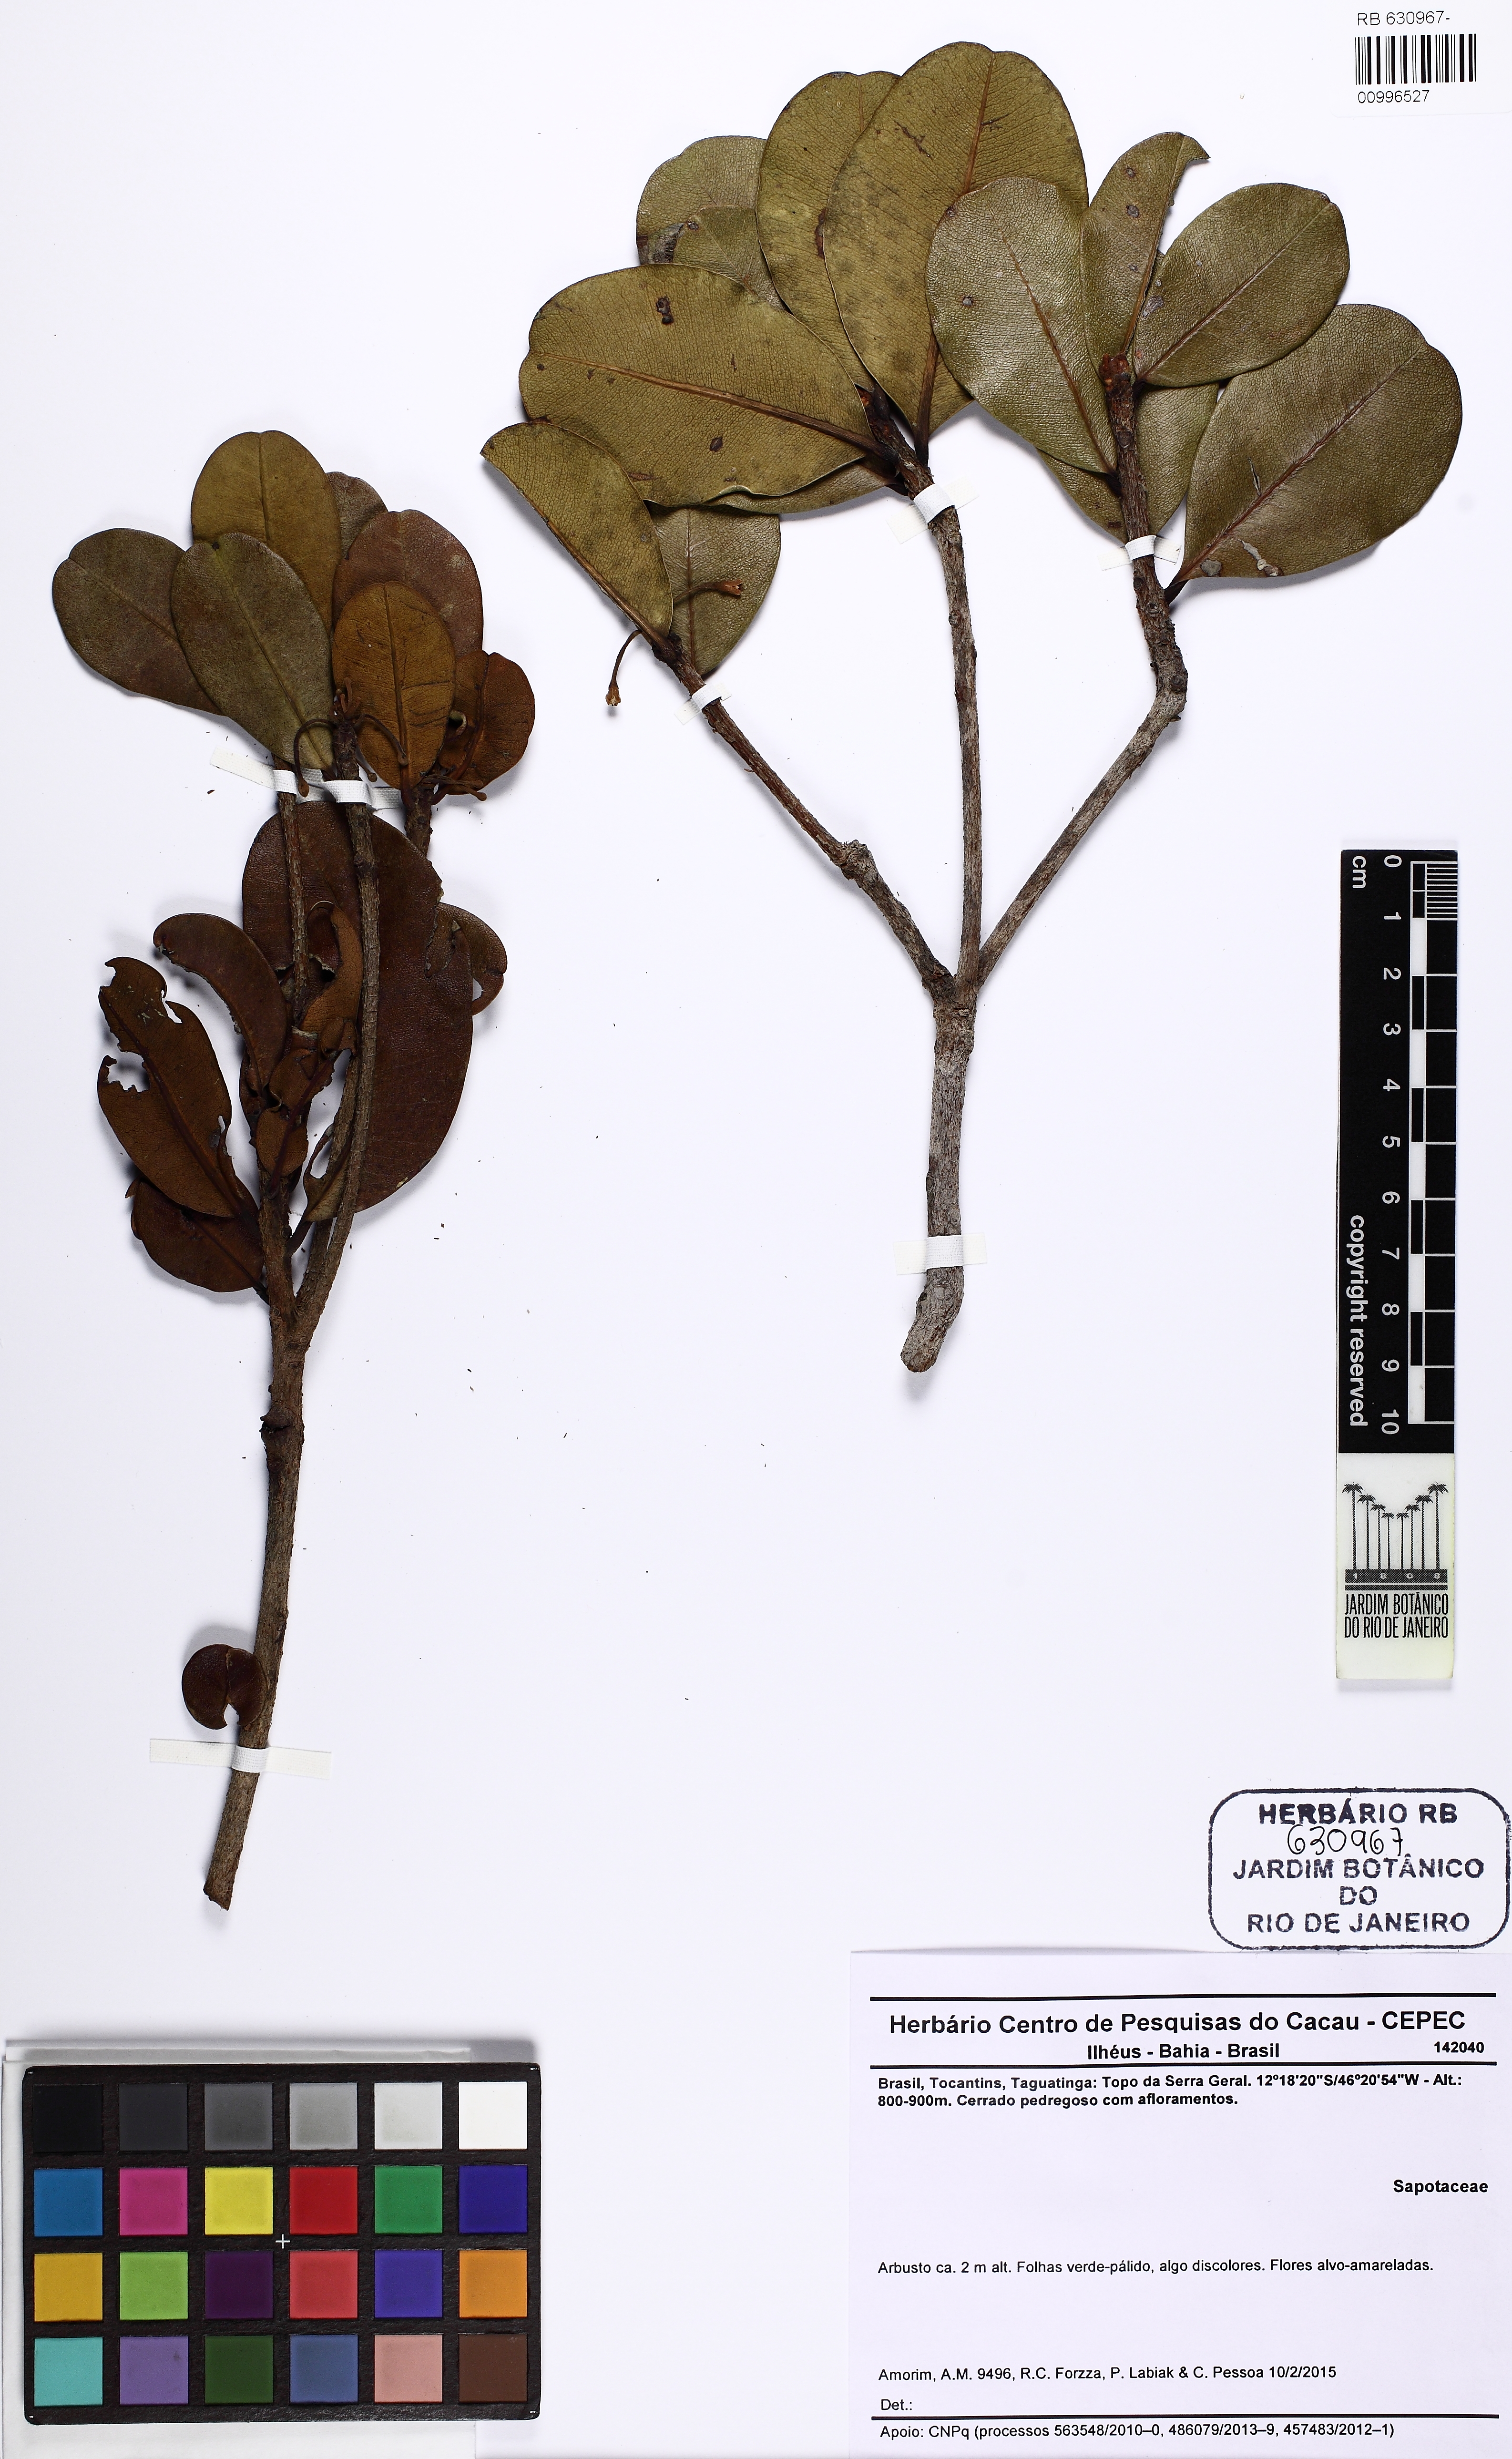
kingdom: Plantae
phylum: Tracheophyta
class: Magnoliopsida
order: Ericales
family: Sapotaceae
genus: Manilkara
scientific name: Manilkara
